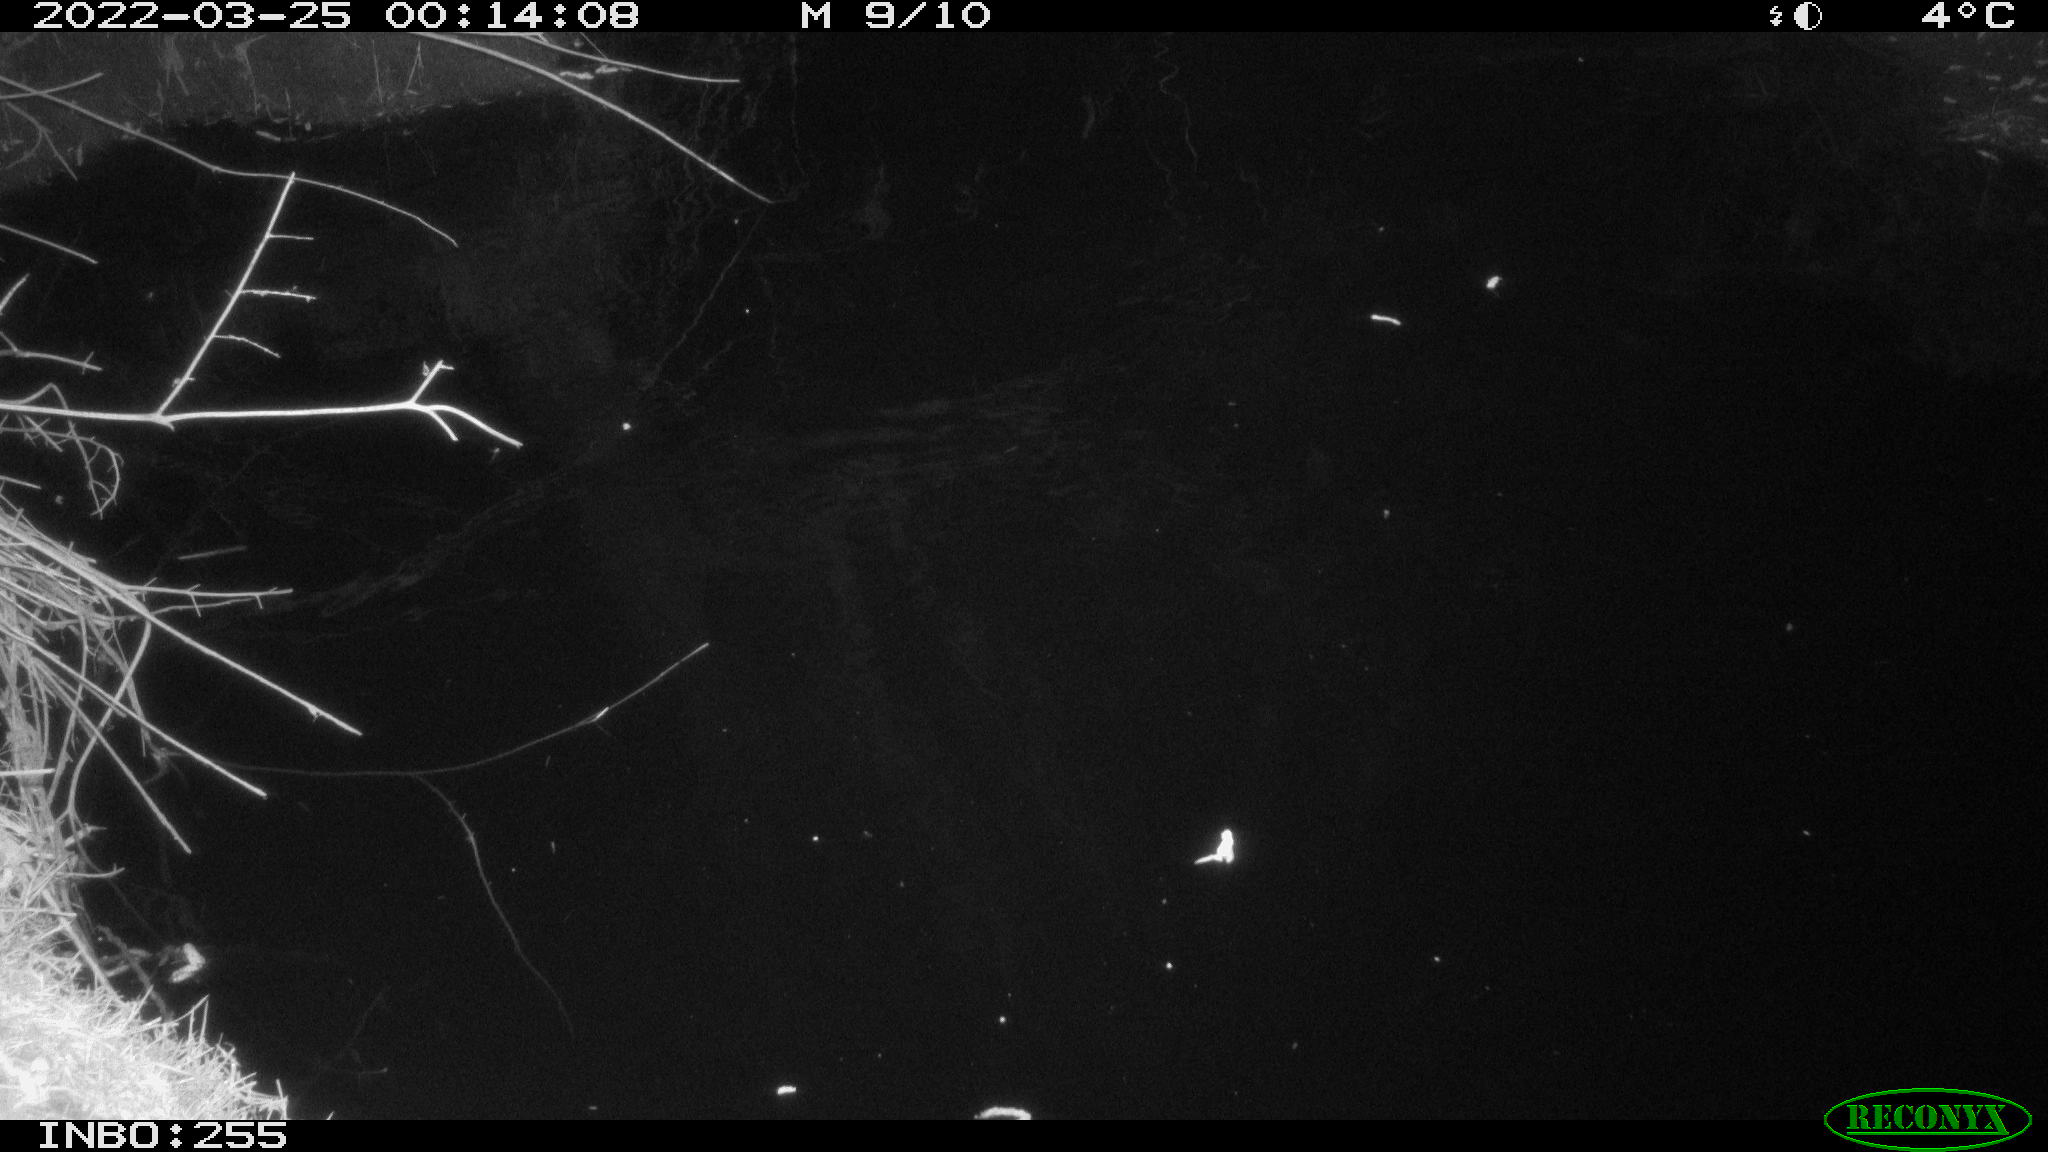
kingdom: Animalia
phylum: Chordata
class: Aves
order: Anseriformes
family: Anatidae
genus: Anas
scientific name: Anas platyrhynchos
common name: Mallard
